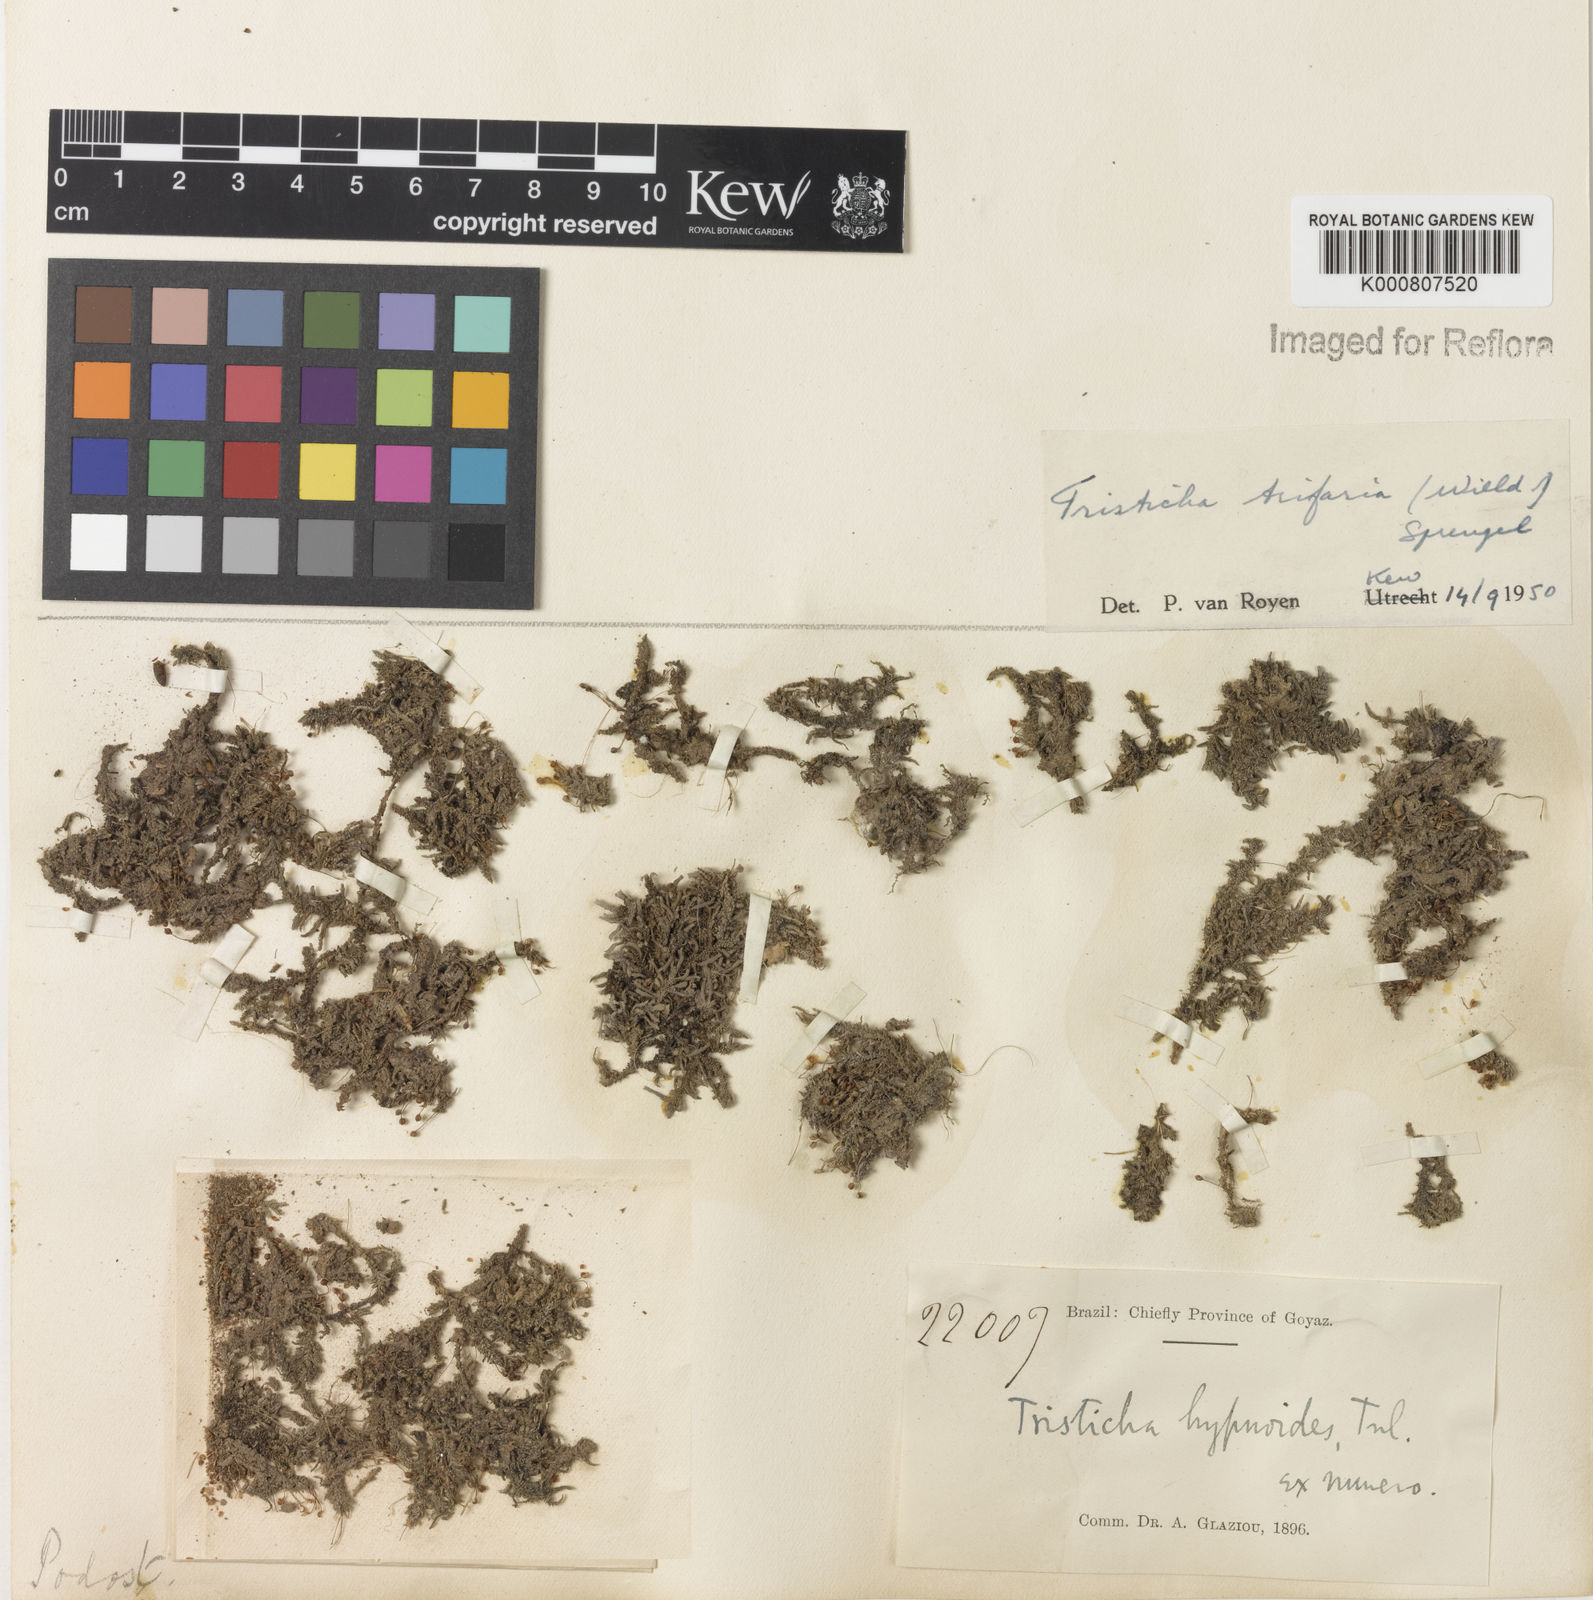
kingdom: Plantae
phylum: Tracheophyta
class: Magnoliopsida
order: Malpighiales
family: Podostemaceae
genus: Tristicha
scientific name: Tristicha trifaria
